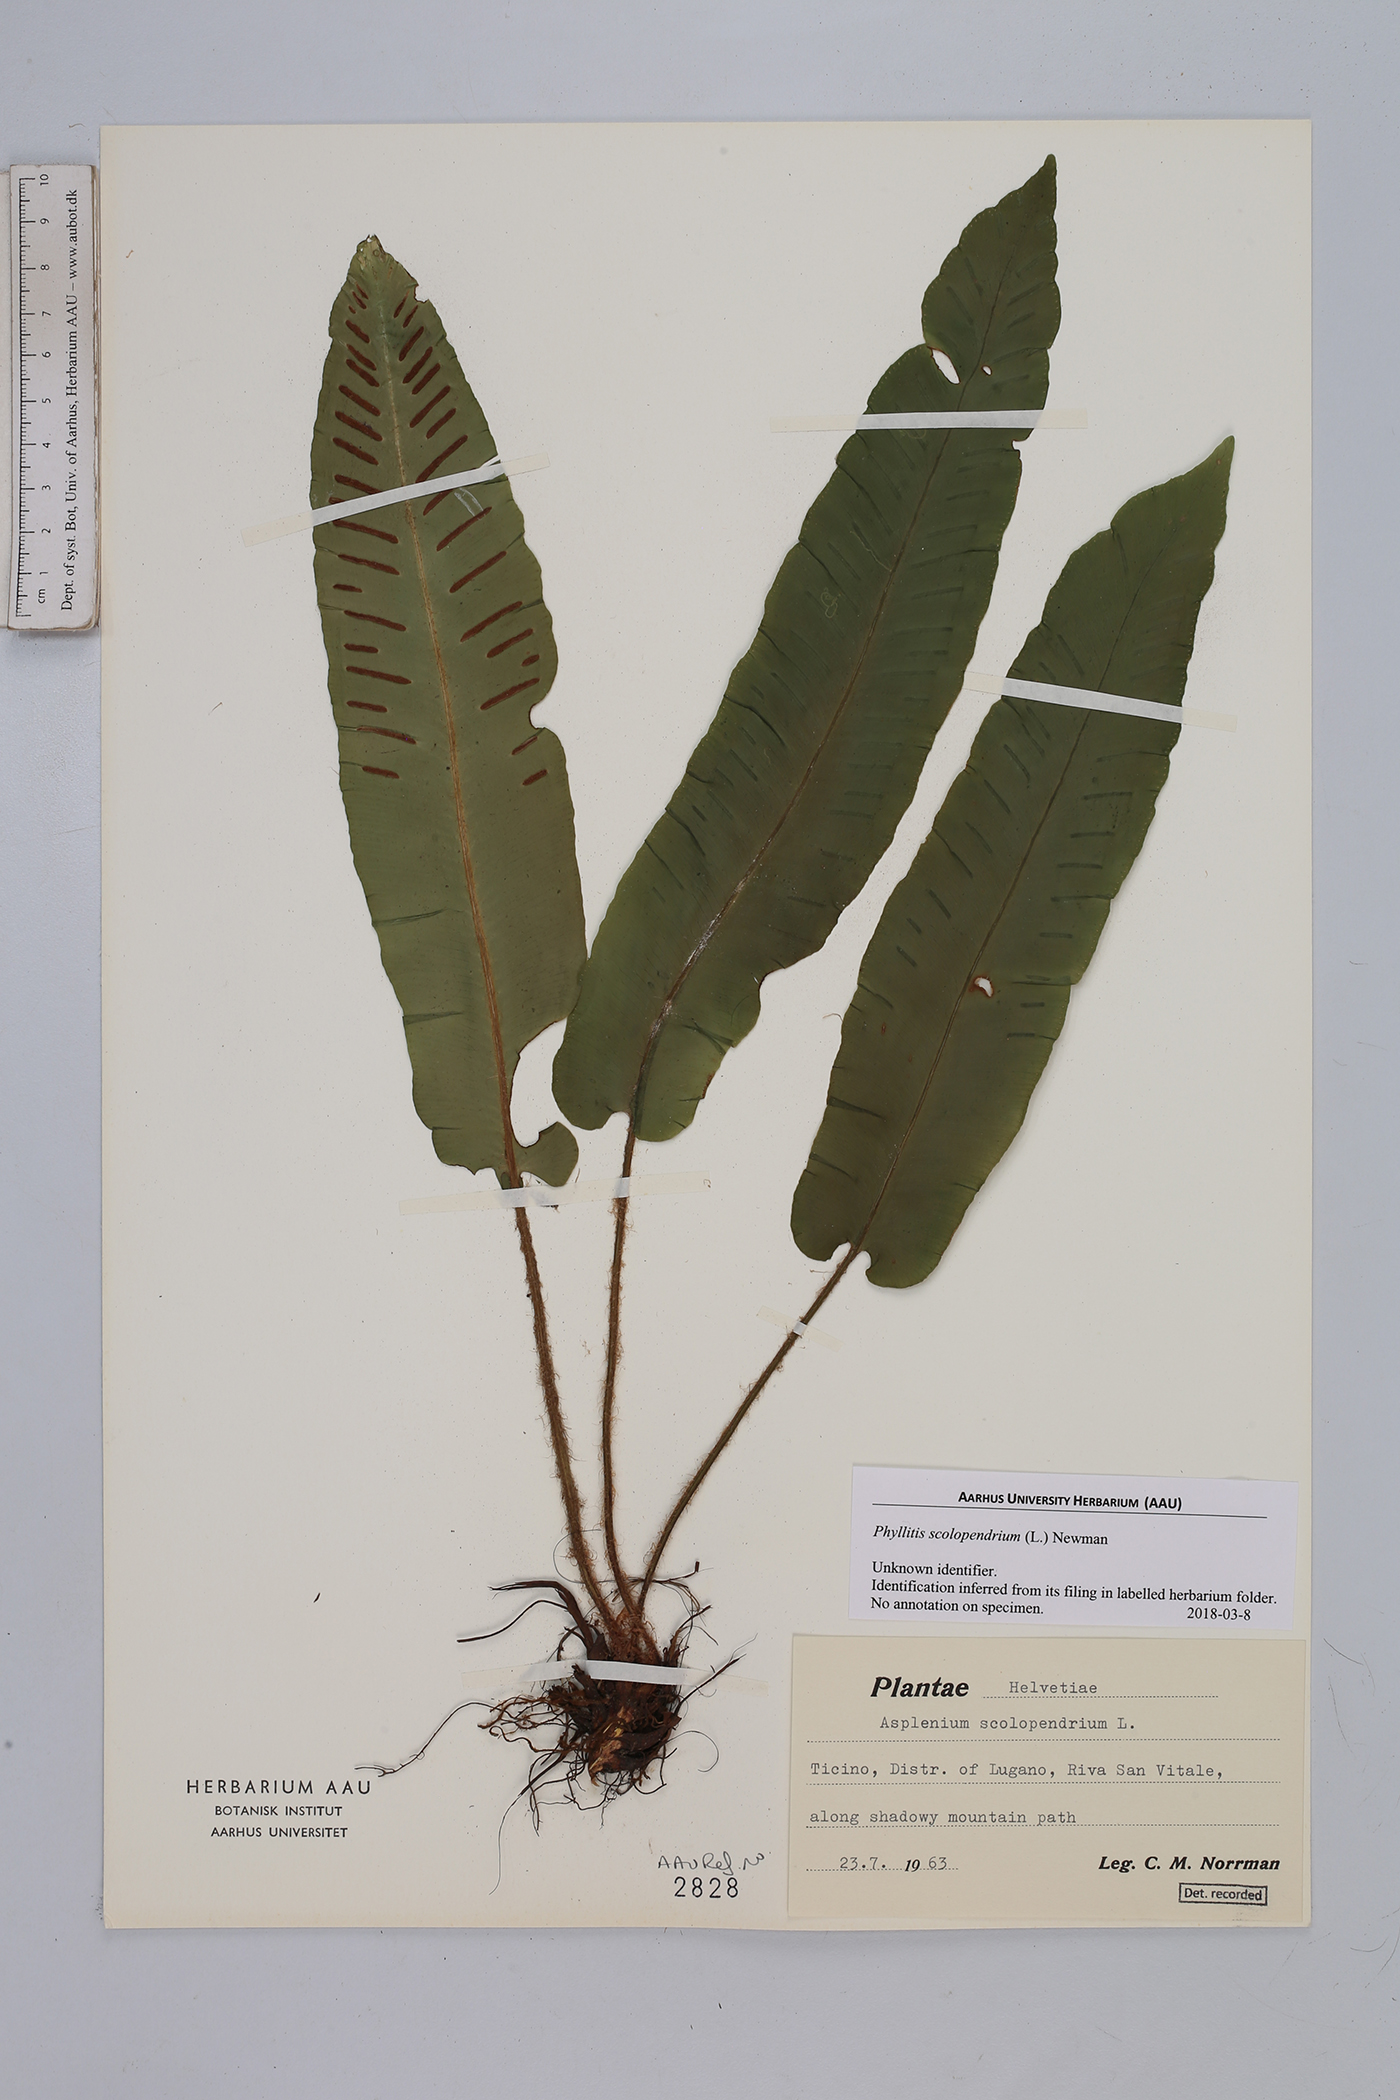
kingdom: Plantae
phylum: Tracheophyta
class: Polypodiopsida
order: Polypodiales
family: Aspleniaceae
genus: Asplenium
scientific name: Asplenium scolopendrium
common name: Hart's-tongue fern
